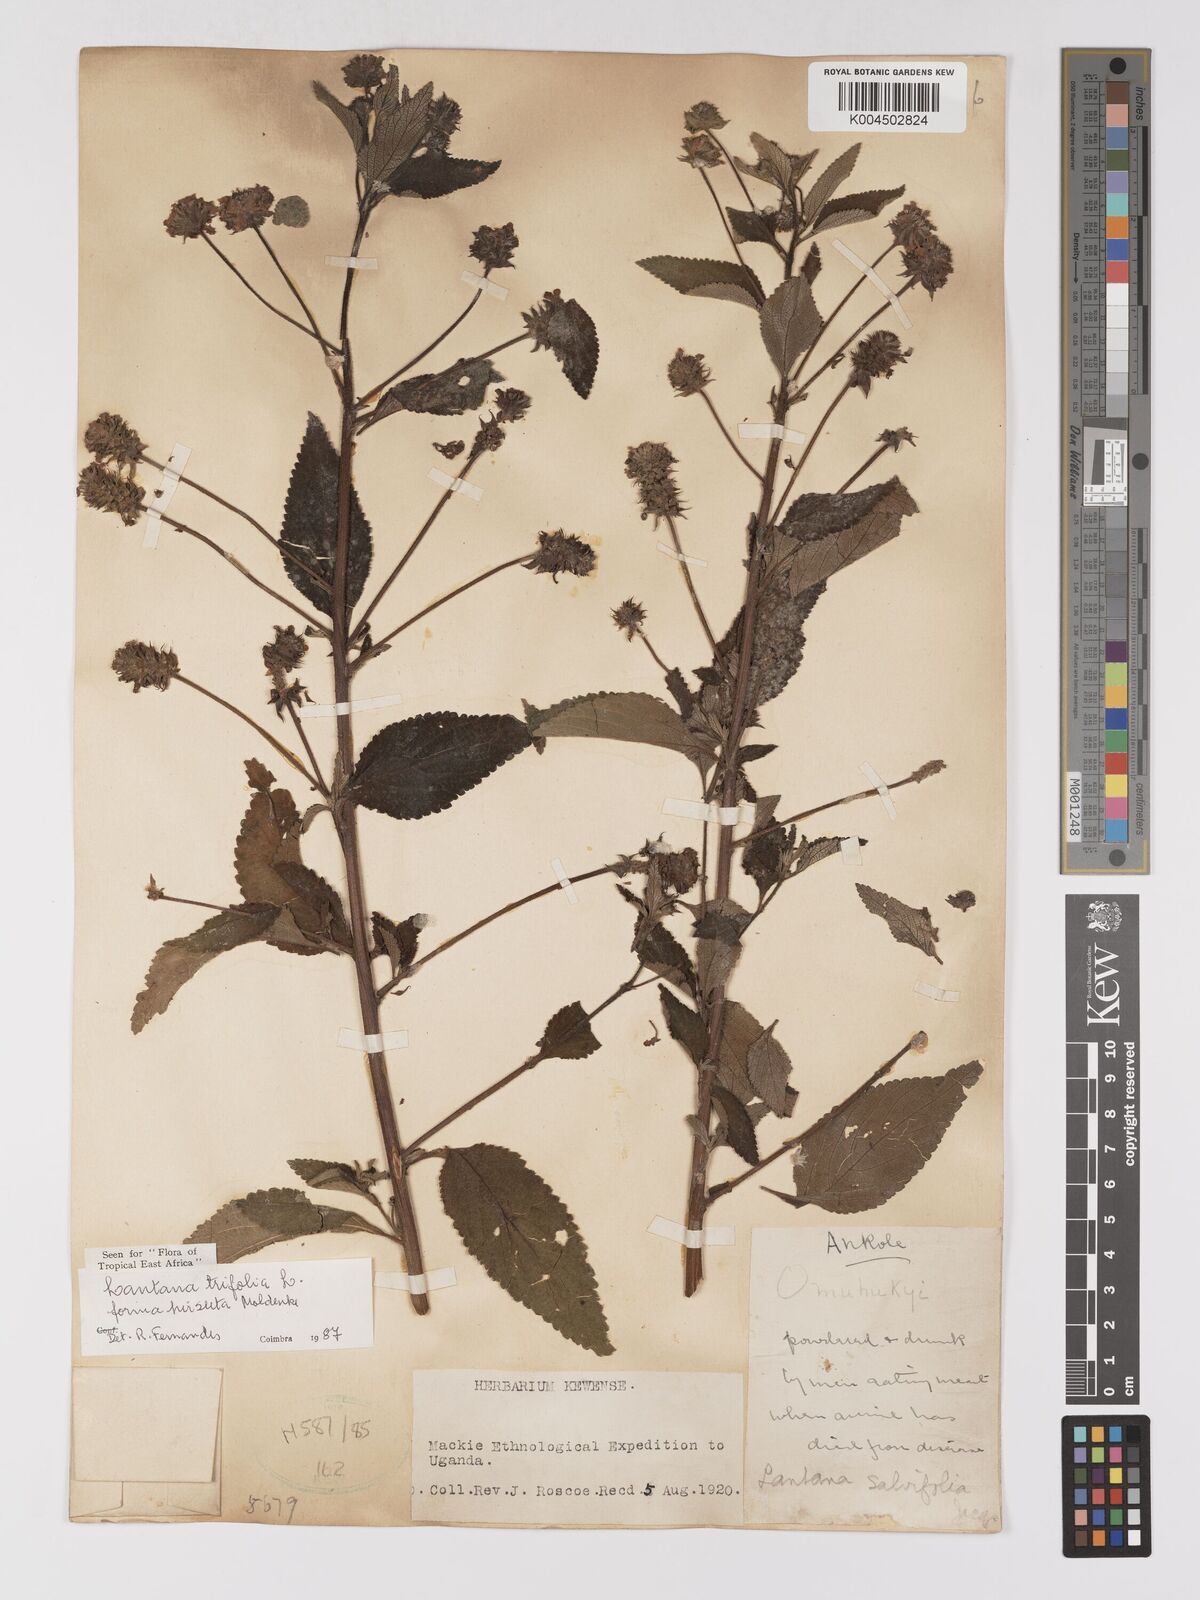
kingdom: Plantae
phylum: Tracheophyta
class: Magnoliopsida
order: Lamiales
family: Verbenaceae
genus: Lantana
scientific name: Lantana trifolia
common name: Sweet-sage
